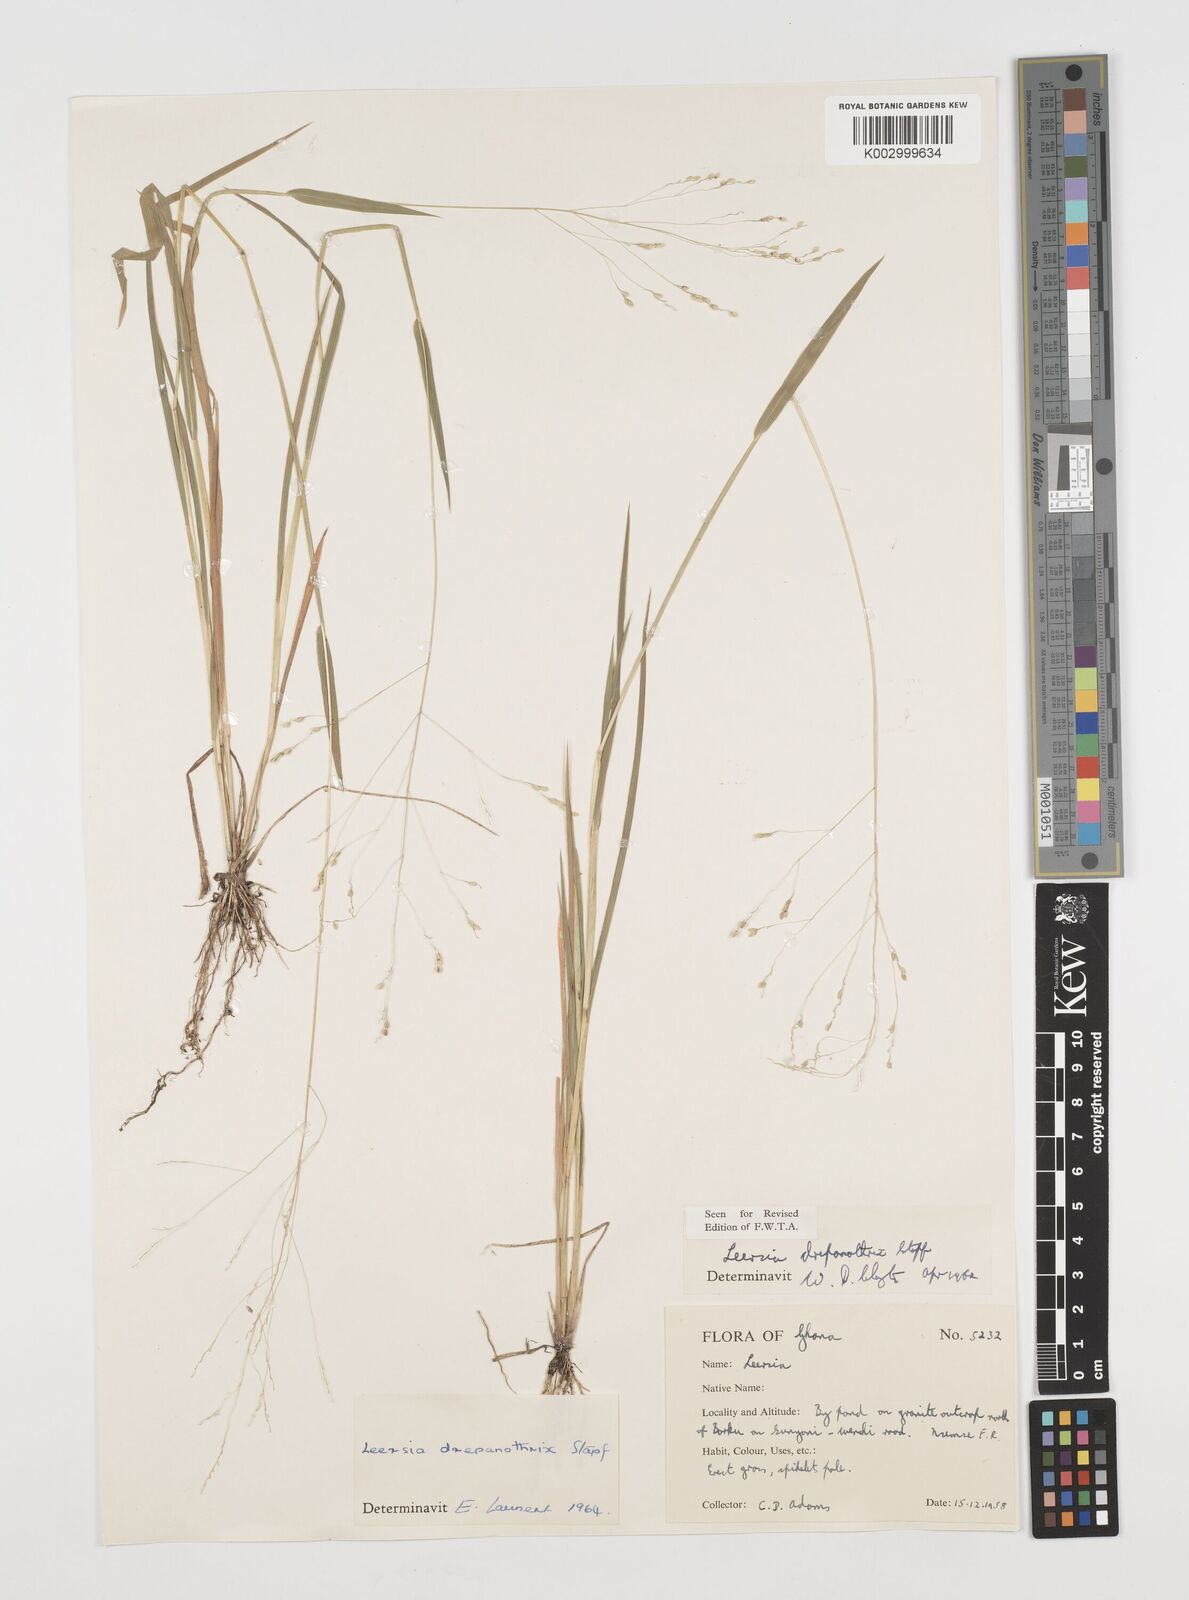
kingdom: Plantae
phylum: Tracheophyta
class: Liliopsida
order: Poales
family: Poaceae
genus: Leersia
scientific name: Leersia drepanothrix
